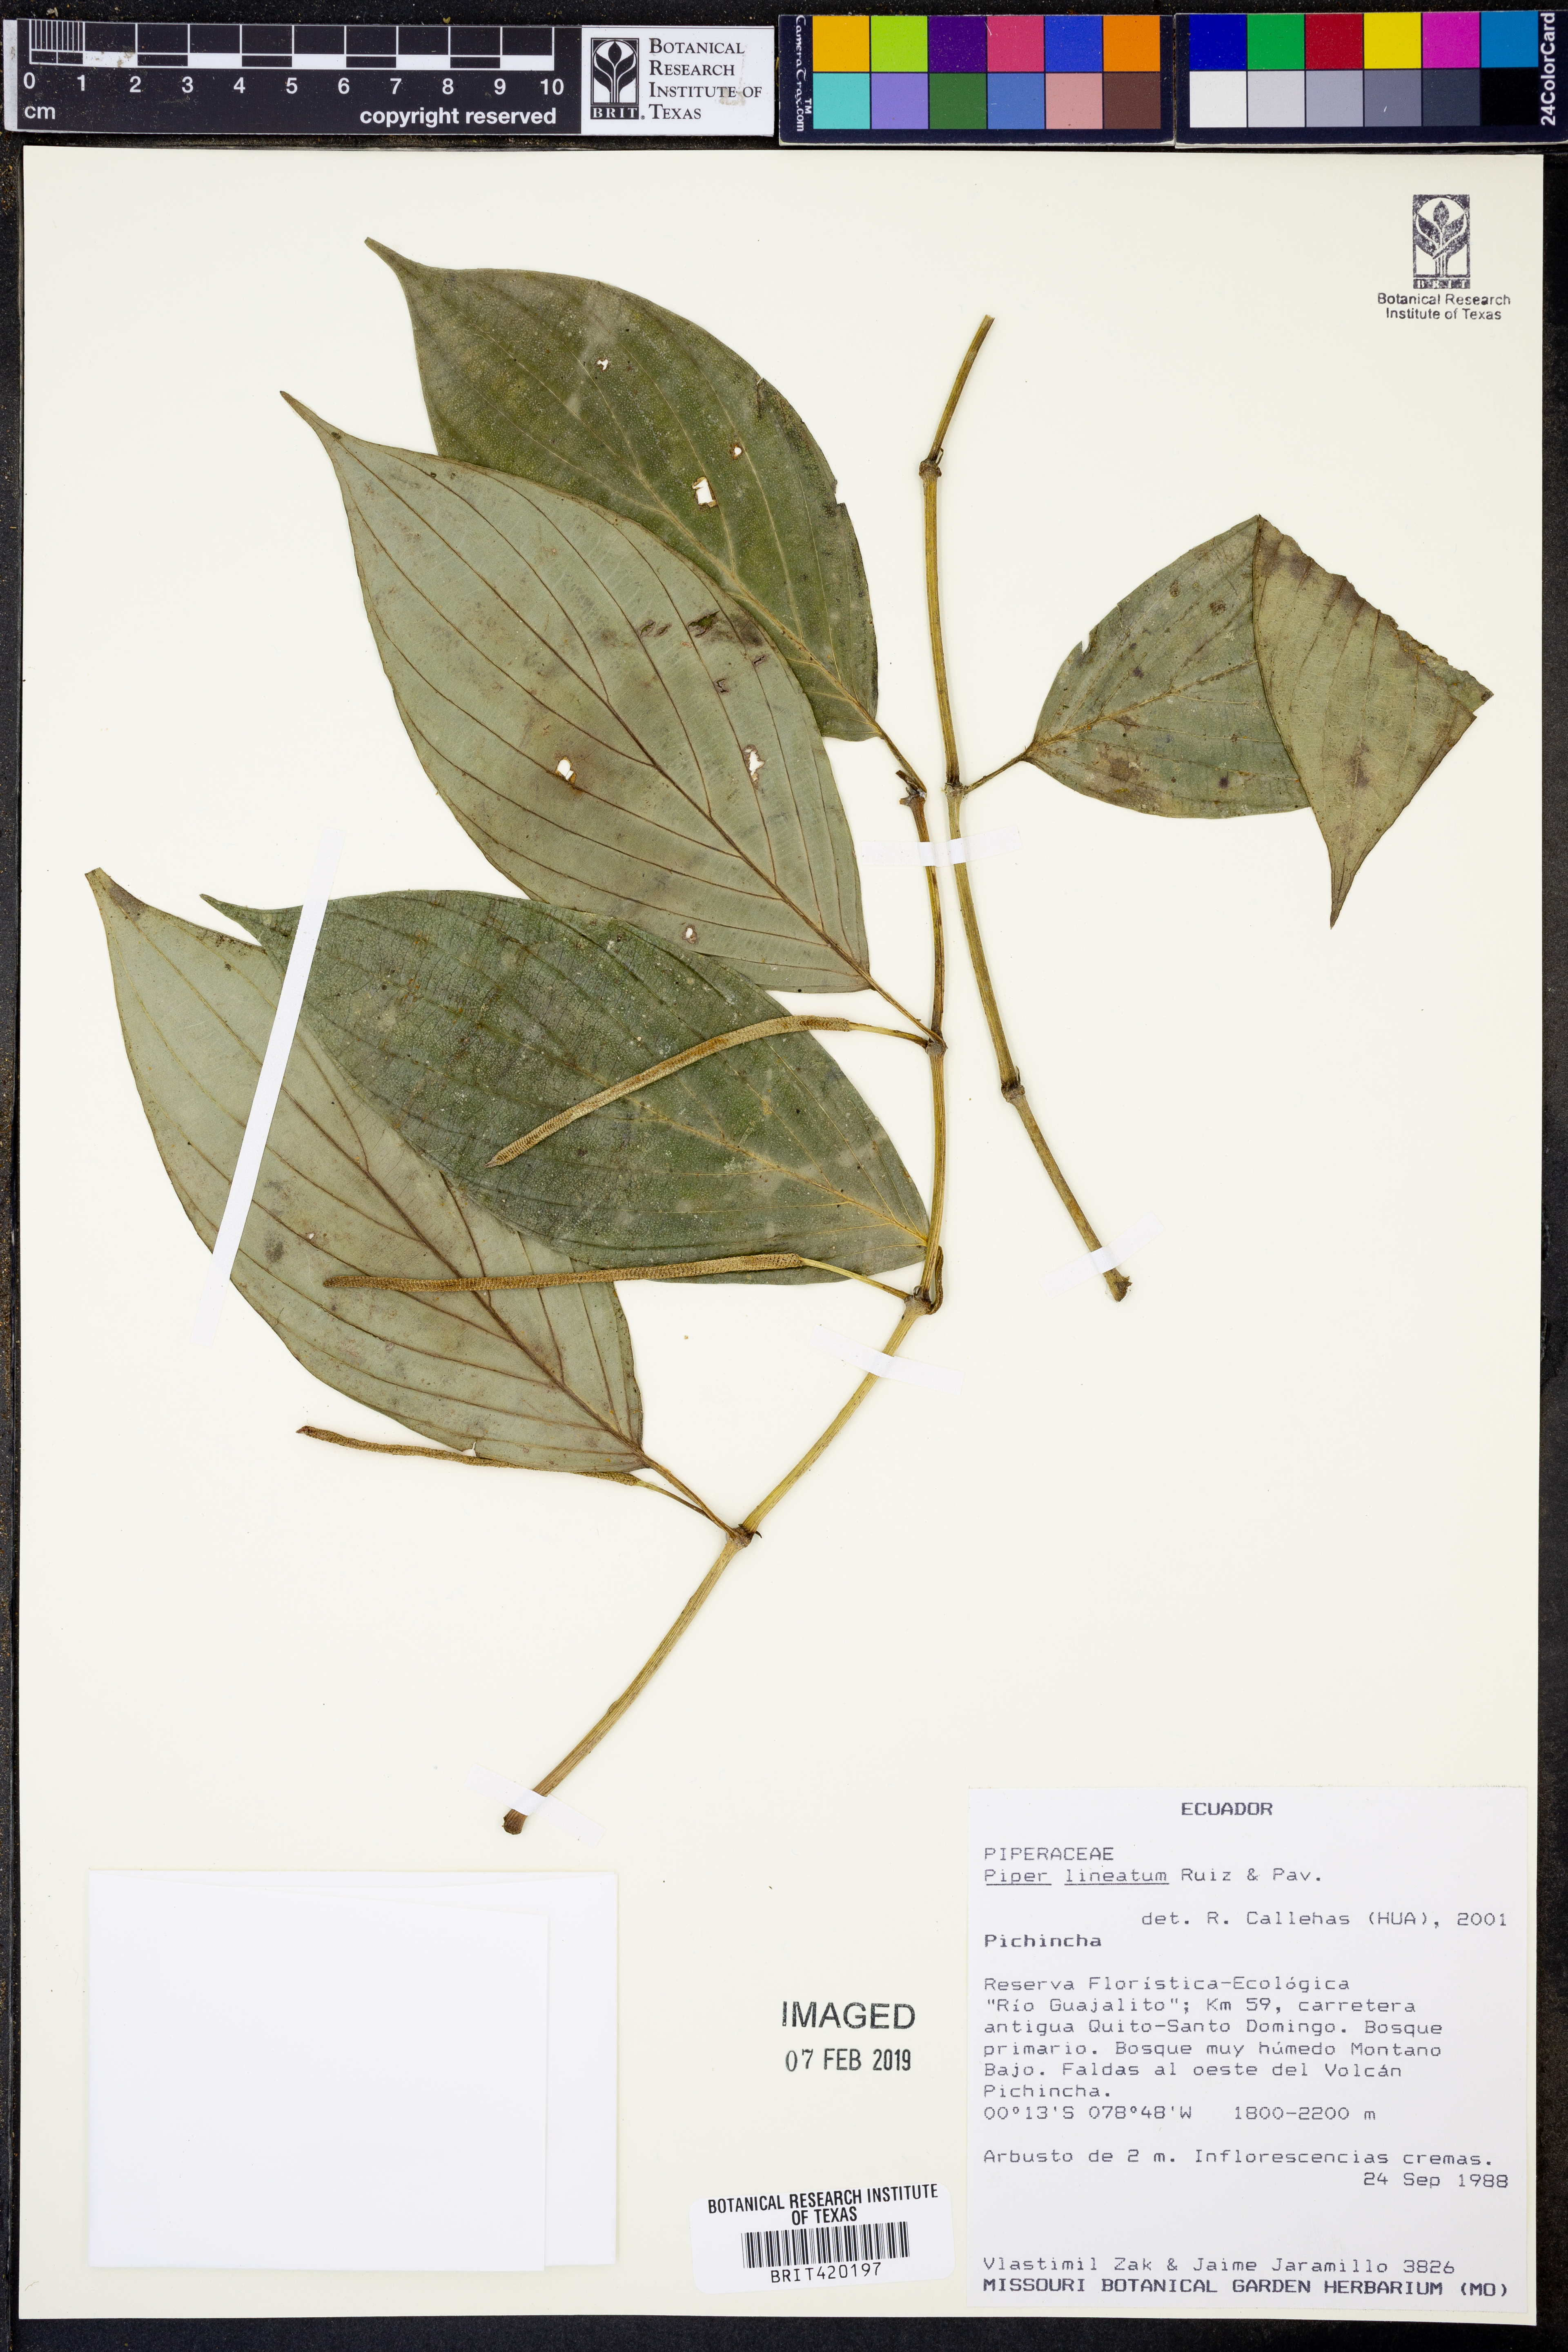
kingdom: Plantae
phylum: Tracheophyta
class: Magnoliopsida
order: Piperales
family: Piperaceae
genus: Piper
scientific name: Piper lineatum
